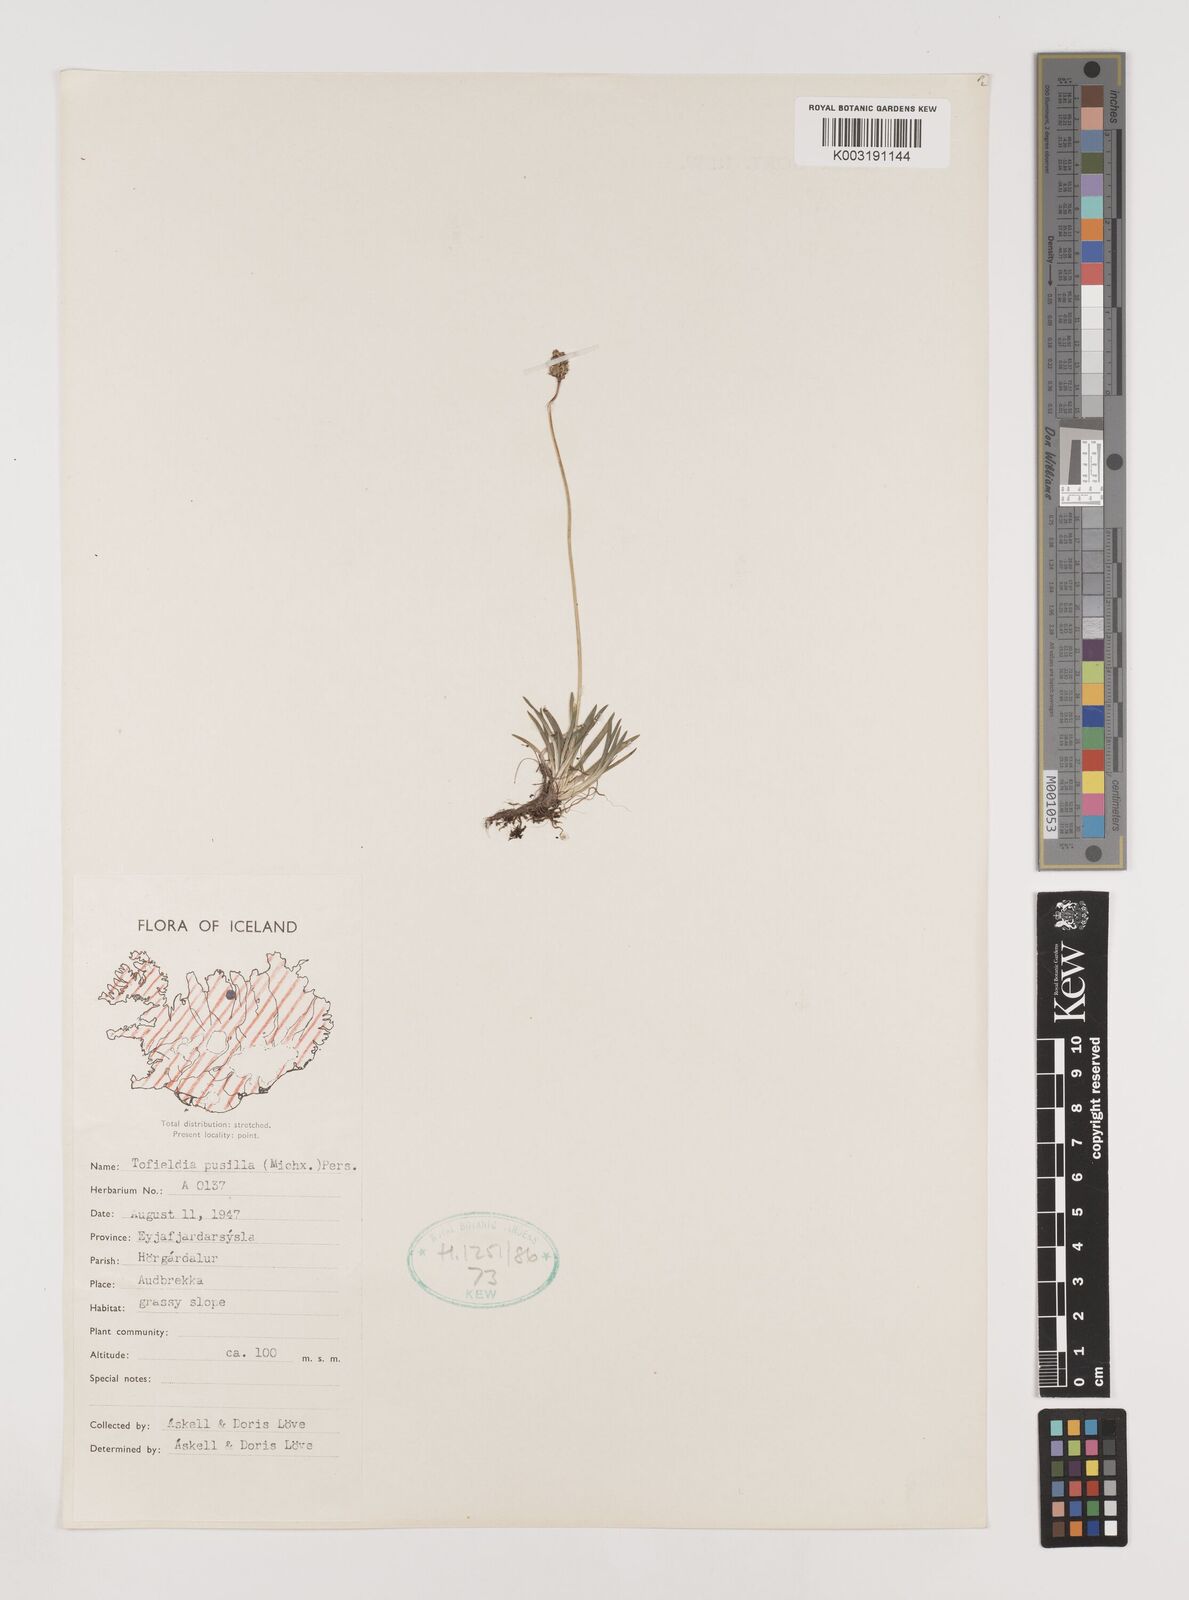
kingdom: Plantae
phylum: Tracheophyta
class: Liliopsida
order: Alismatales
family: Tofieldiaceae
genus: Tofieldia
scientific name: Tofieldia pusilla
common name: Scottish false asphodel
